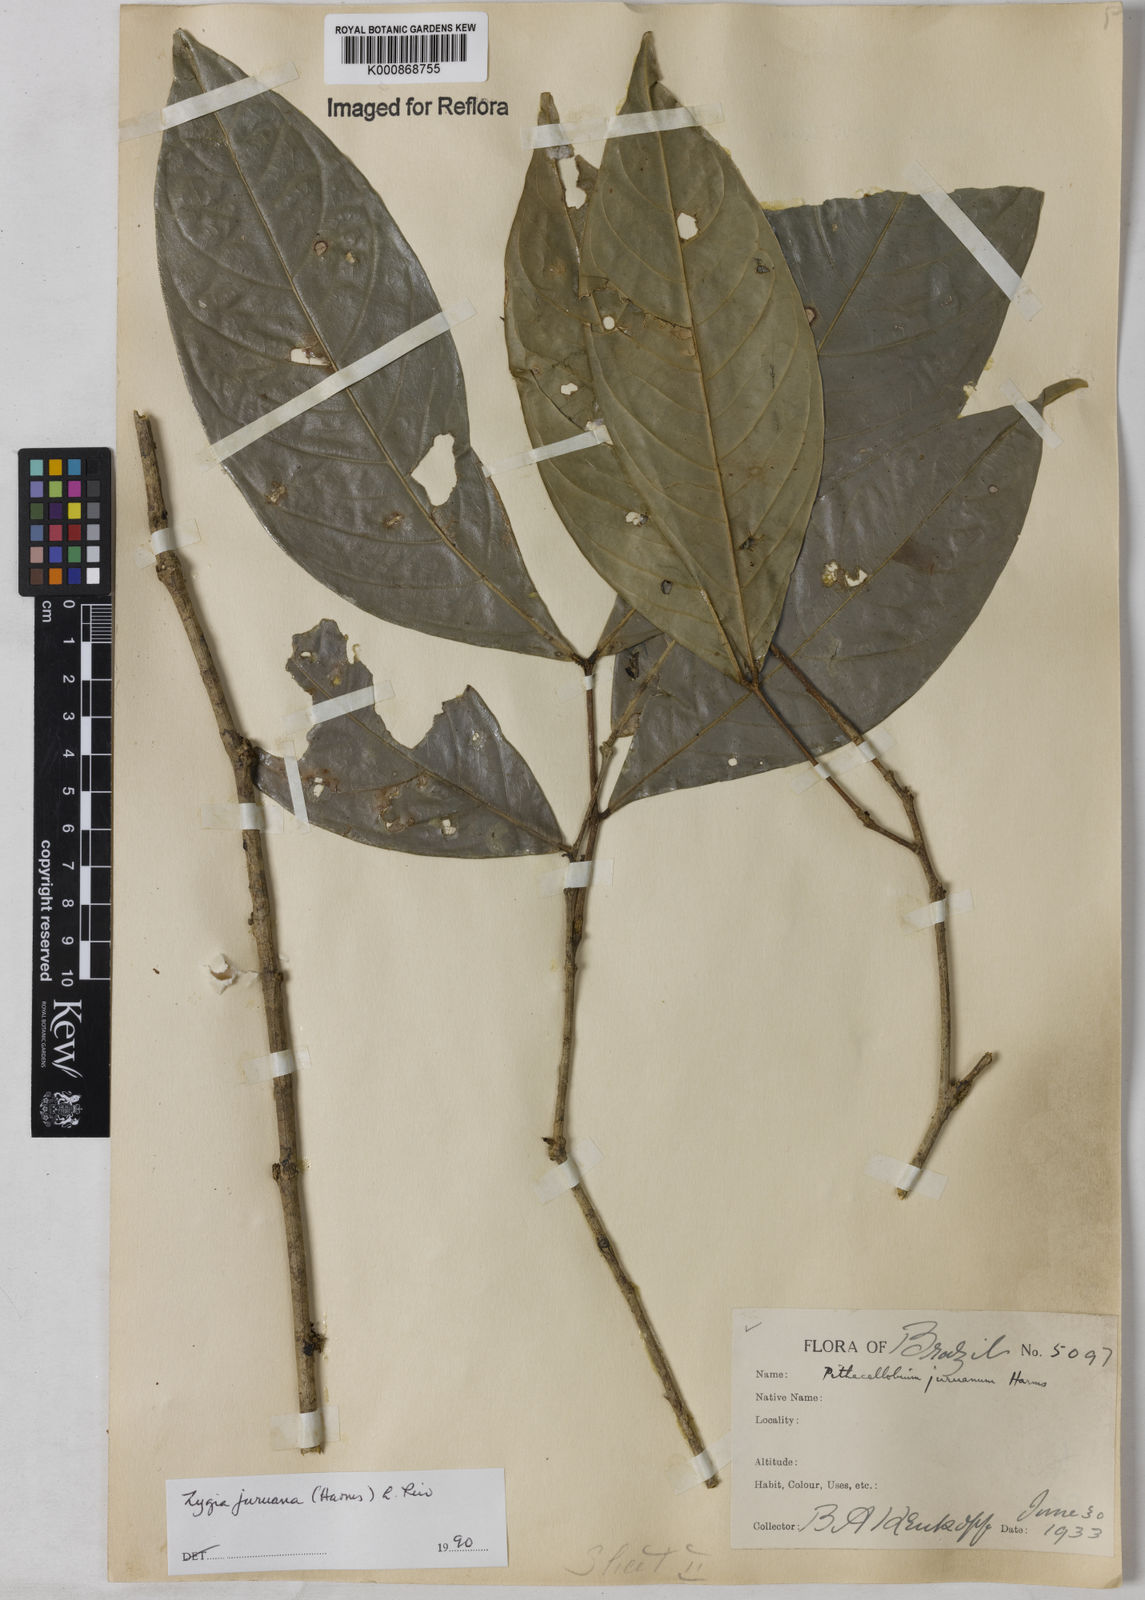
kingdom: Plantae
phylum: Tracheophyta
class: Magnoliopsida
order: Fabales
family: Fabaceae
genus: Zygia
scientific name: Zygia juruana
